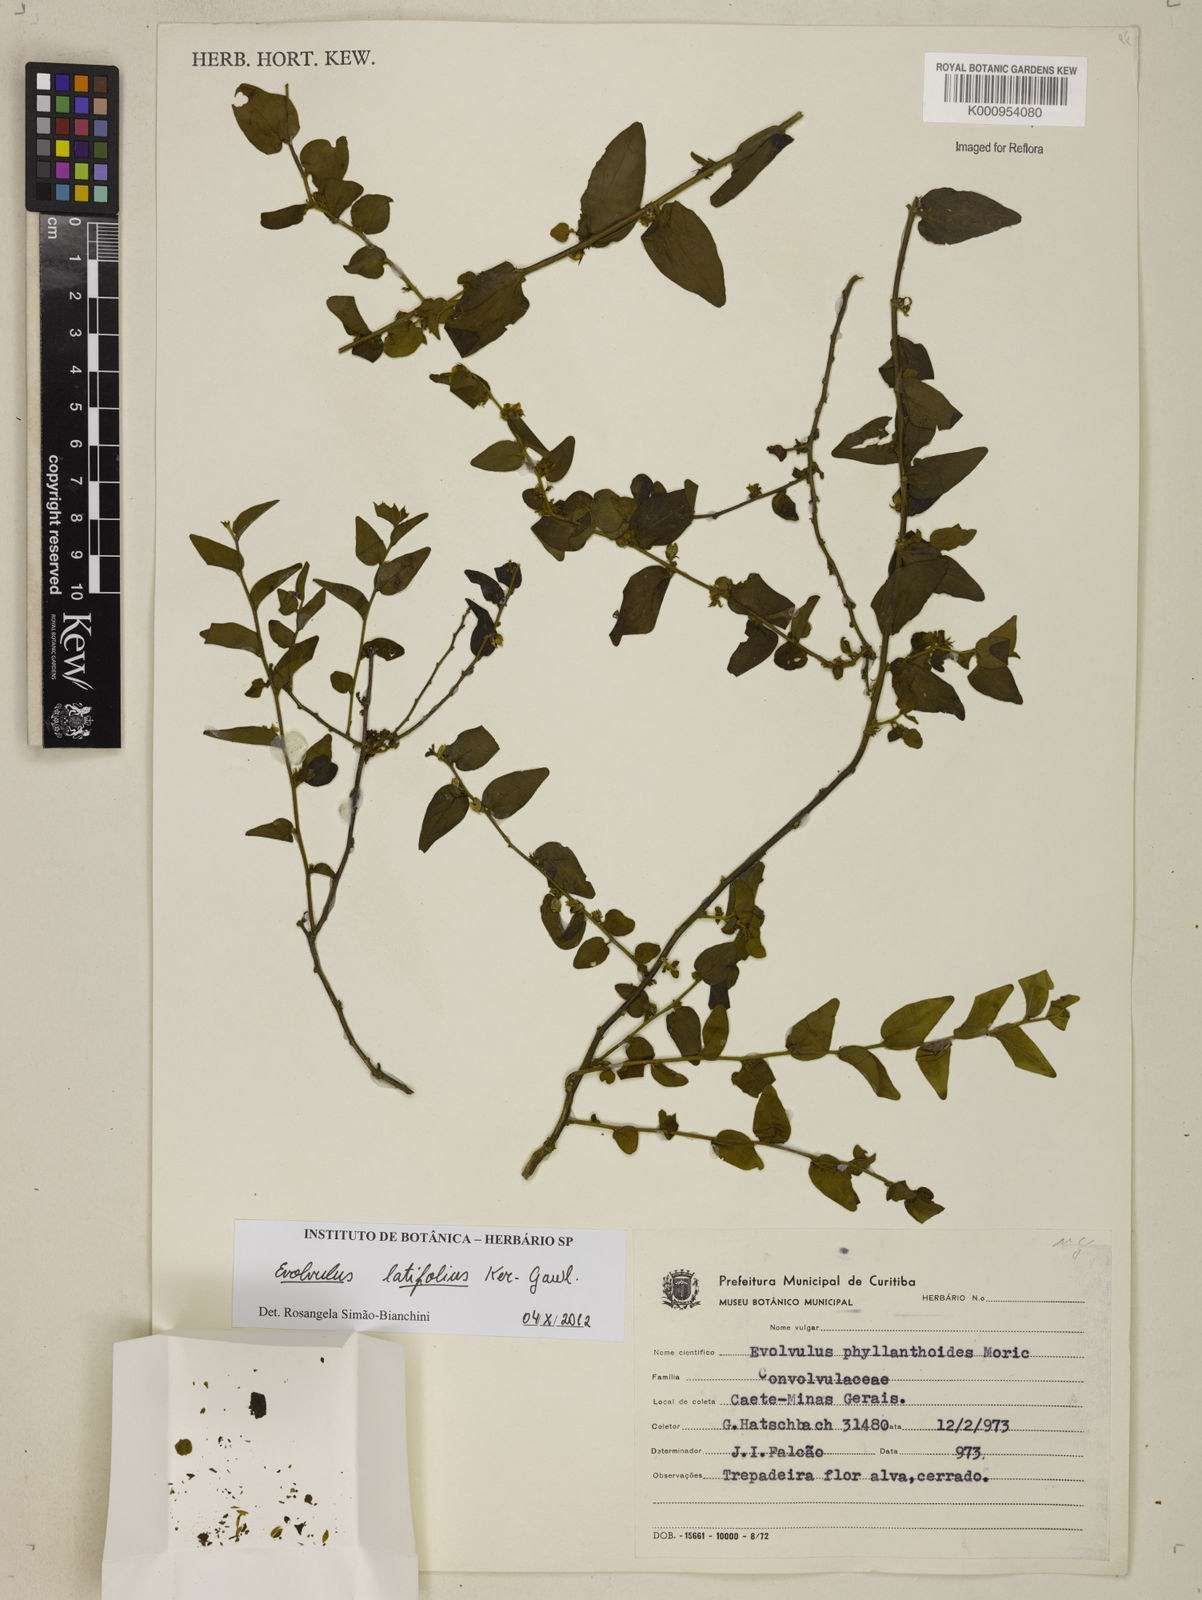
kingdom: Plantae
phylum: Tracheophyta
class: Magnoliopsida
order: Solanales
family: Convolvulaceae
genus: Evolvulus
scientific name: Evolvulus latifolius
